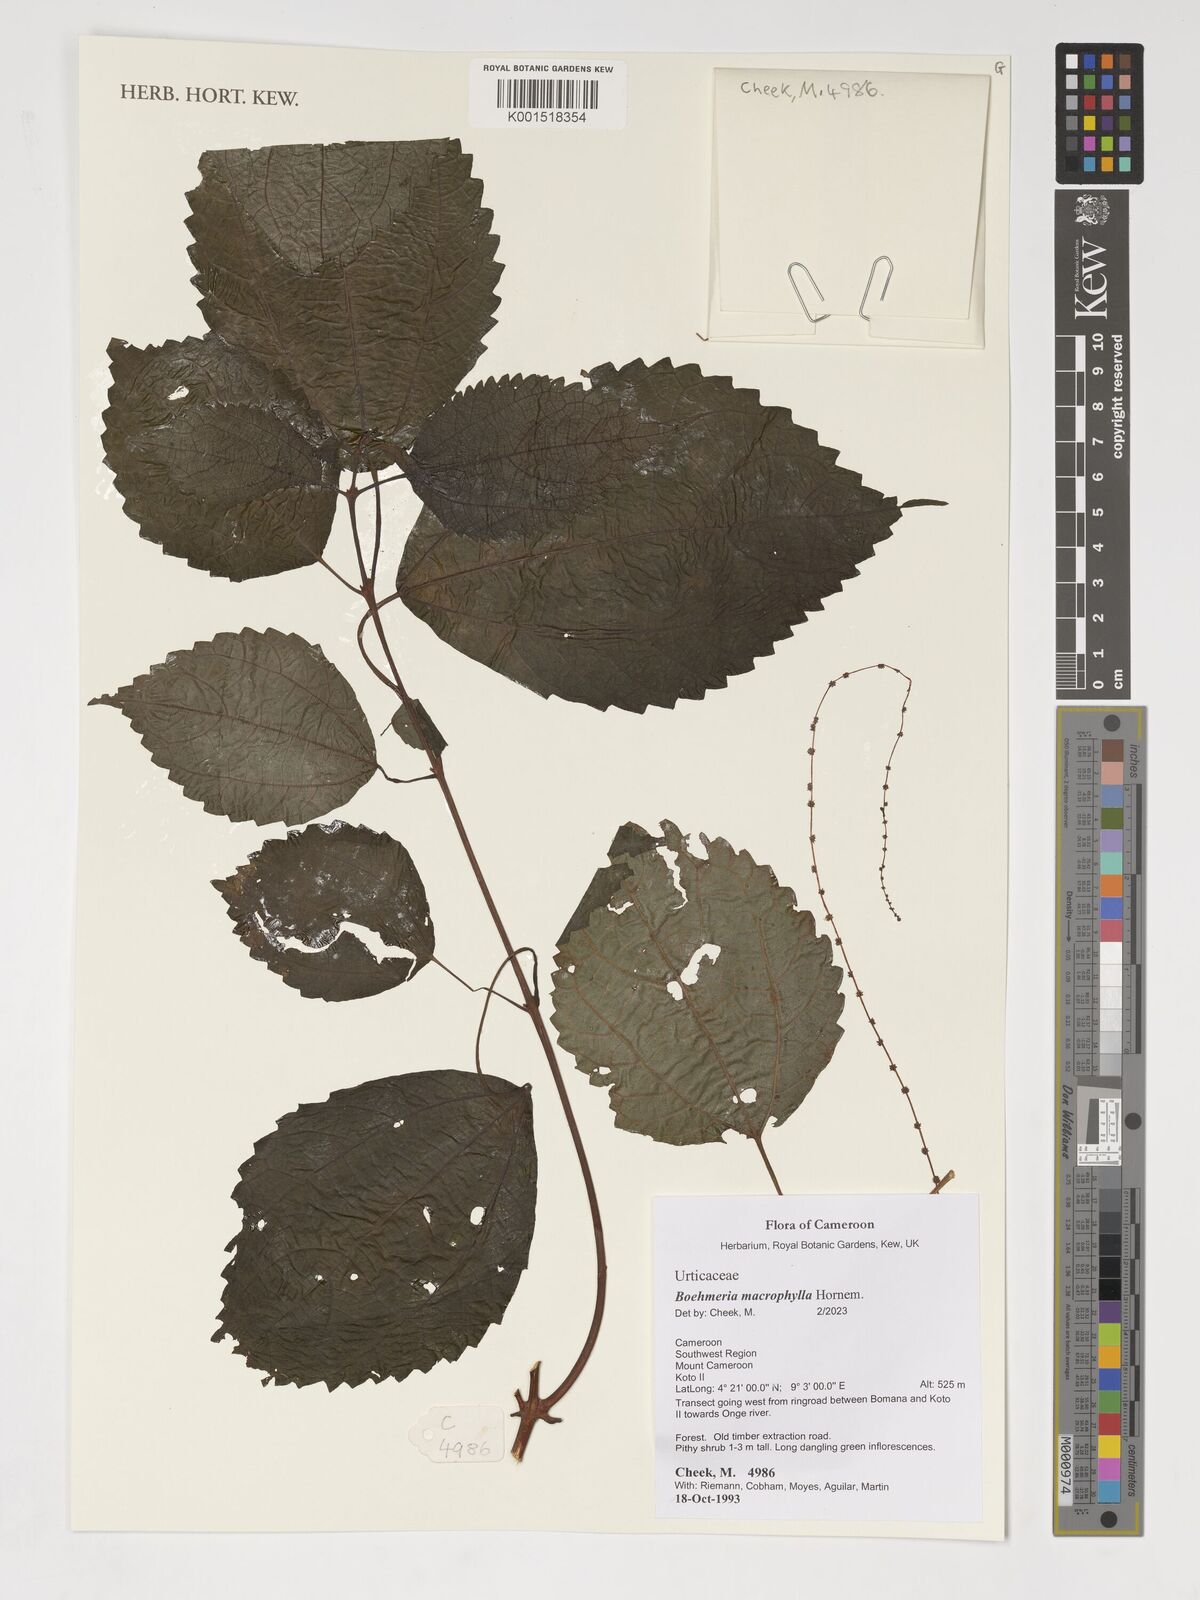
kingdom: Plantae
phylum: Tracheophyta
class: Magnoliopsida
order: Rosales
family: Urticaceae
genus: Boehmeria
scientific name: Boehmeria virgata
